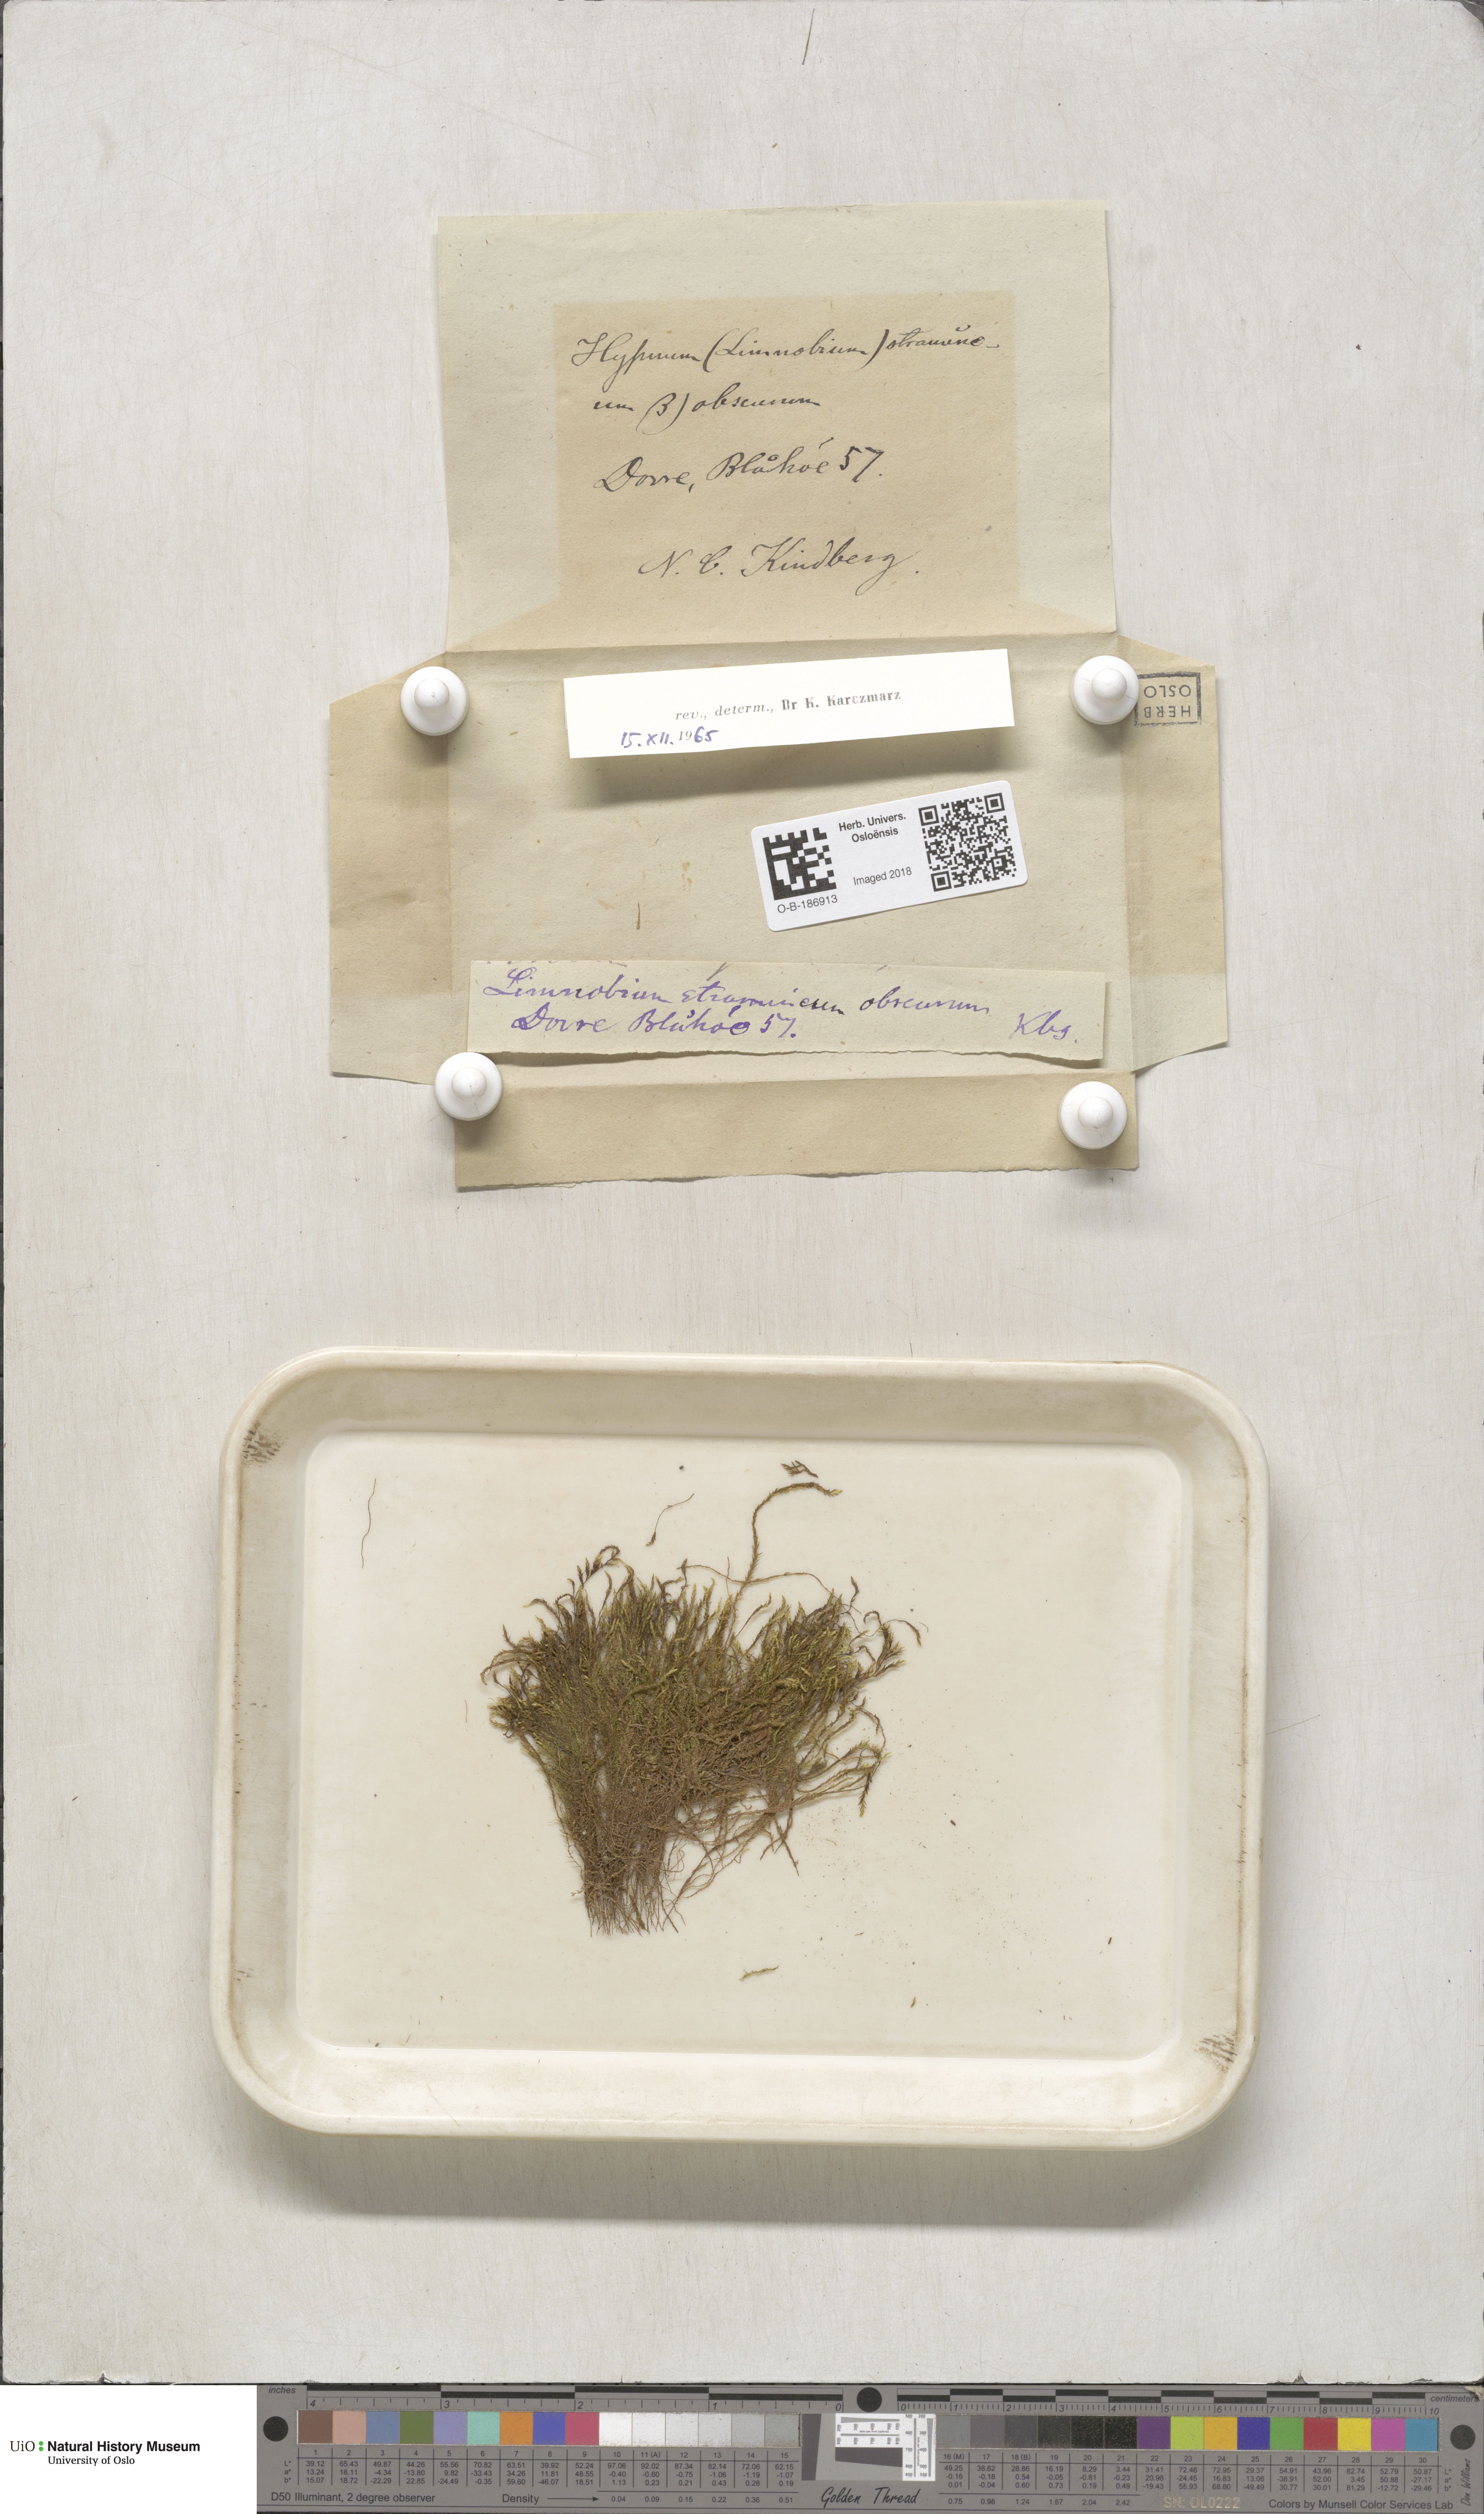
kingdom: Plantae
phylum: Bryophyta
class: Bryopsida
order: Hypnales
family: Calliergonaceae
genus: Straminergon
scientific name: Straminergon stramineum
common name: Straw moss
